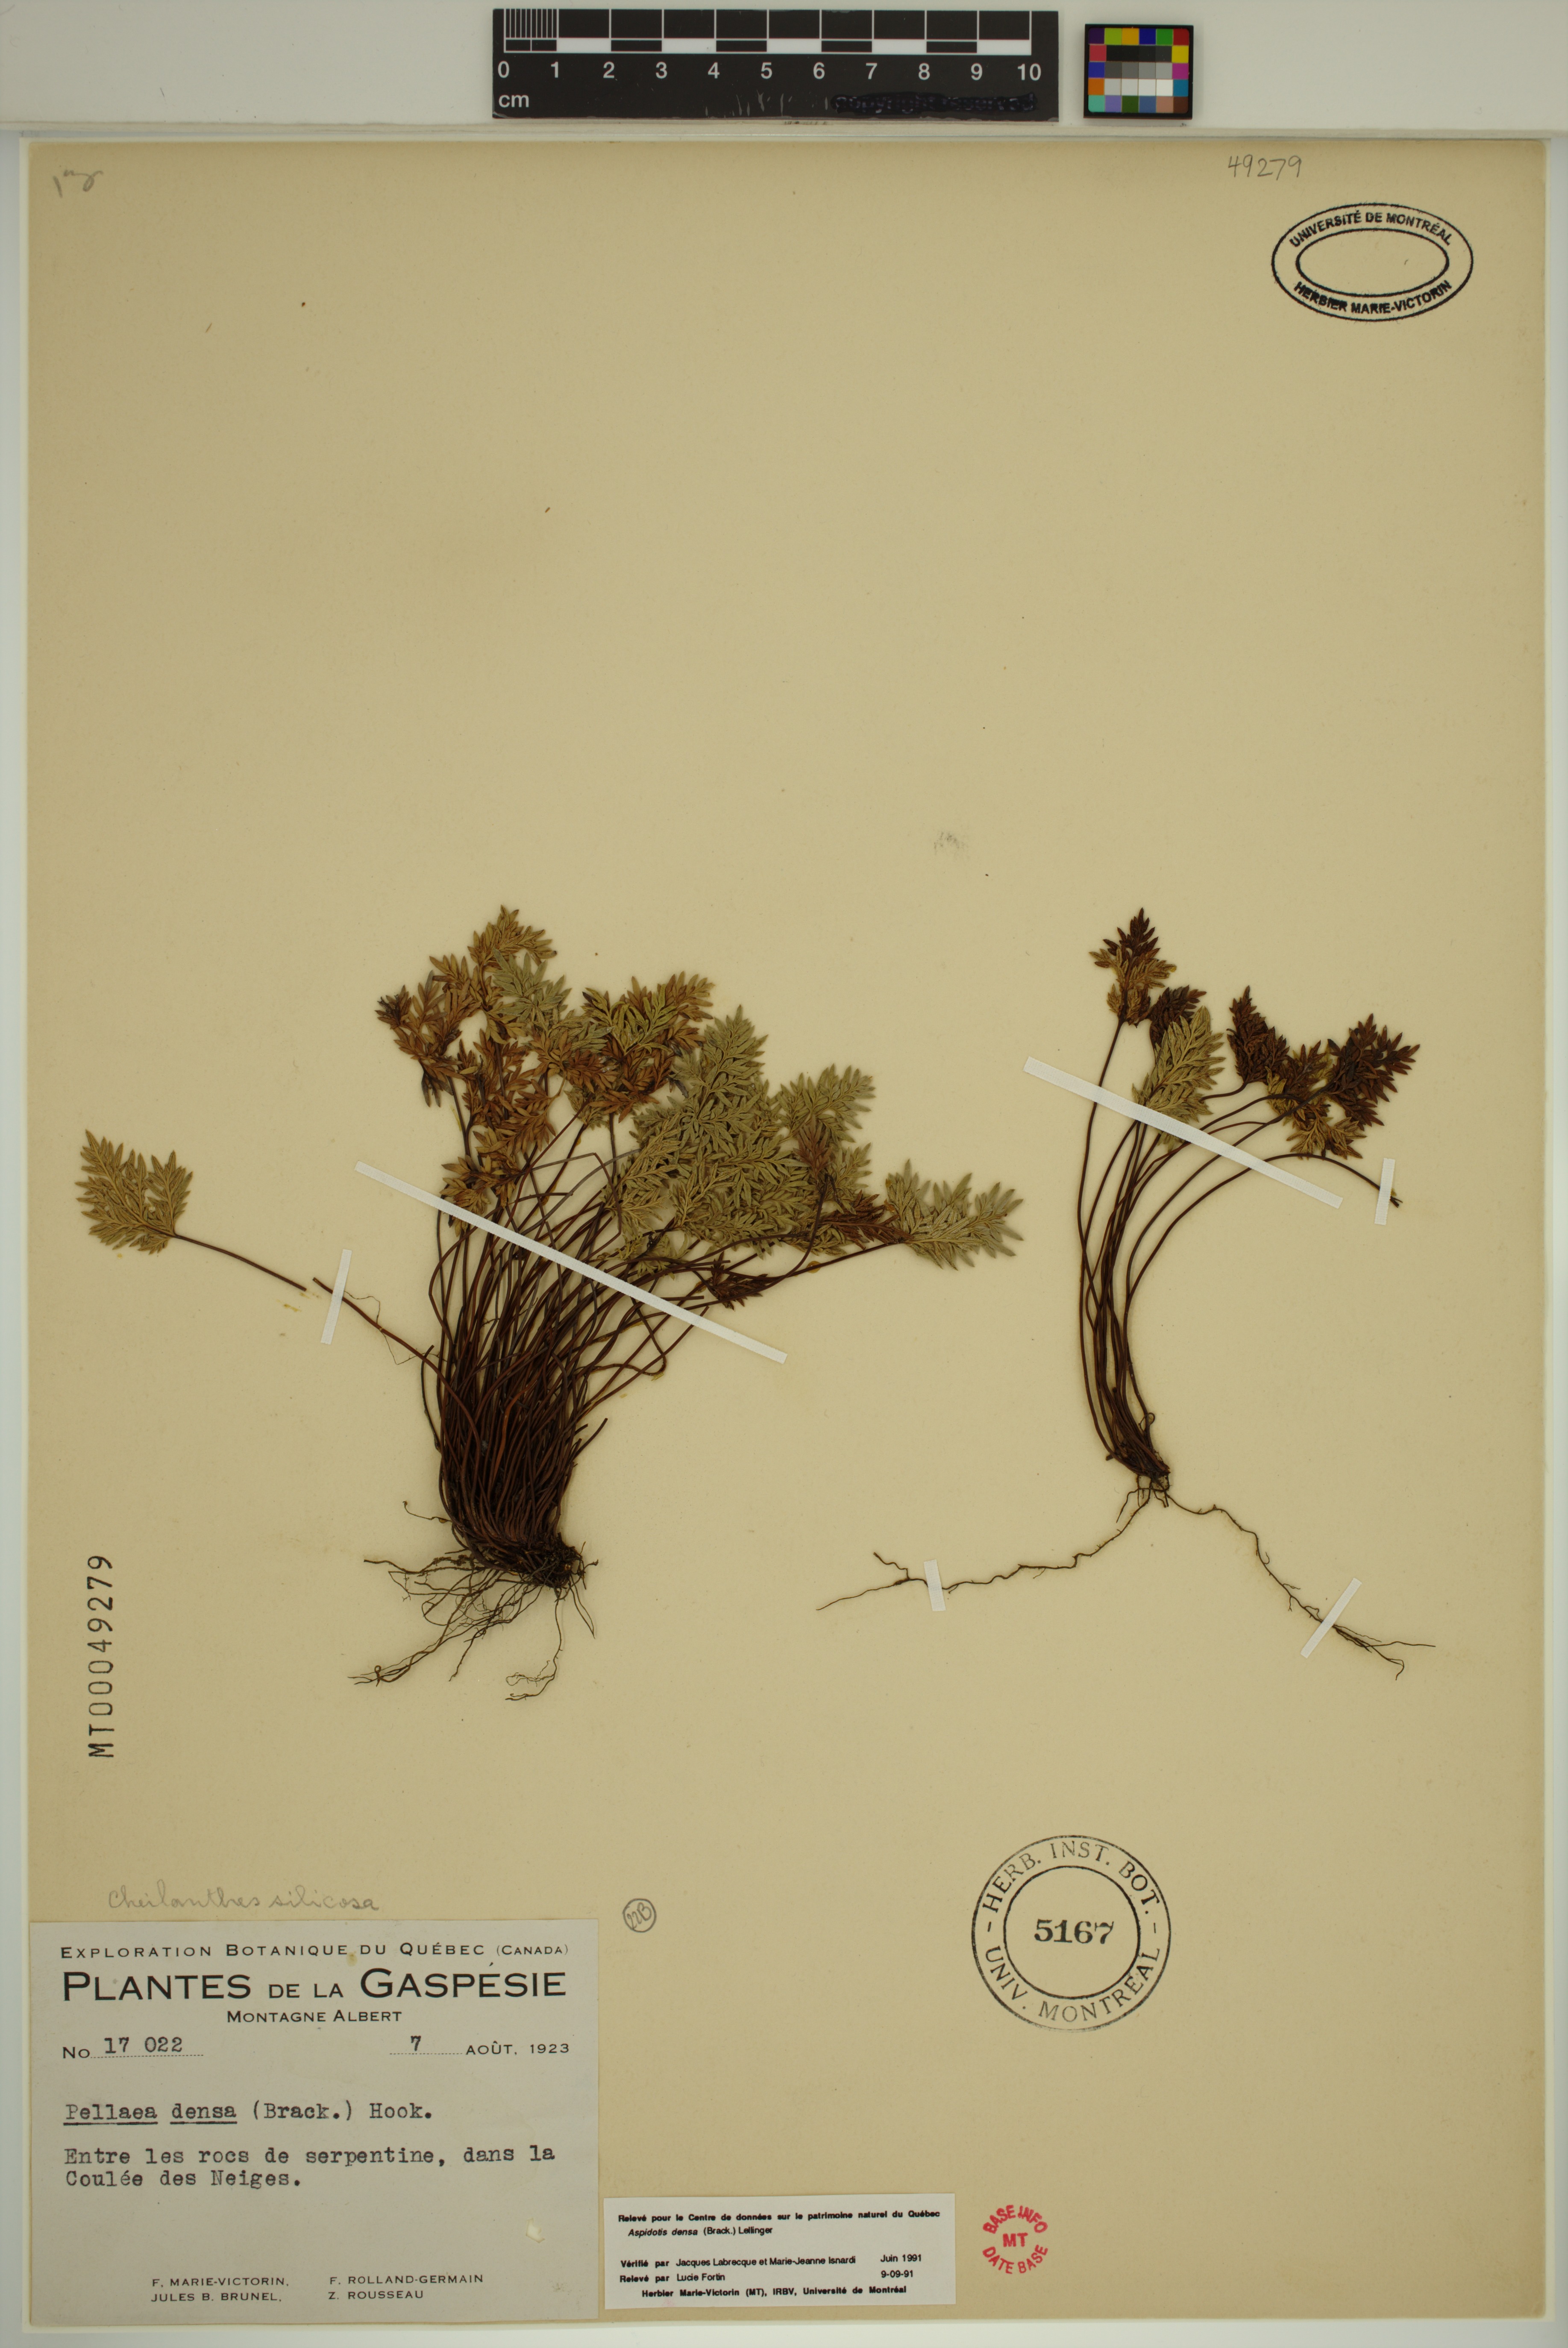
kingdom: Plantae
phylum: Tracheophyta
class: Polypodiopsida
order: Polypodiales
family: Pteridaceae
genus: Aspidotis
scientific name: Aspidotis densa
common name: Indian's dream
